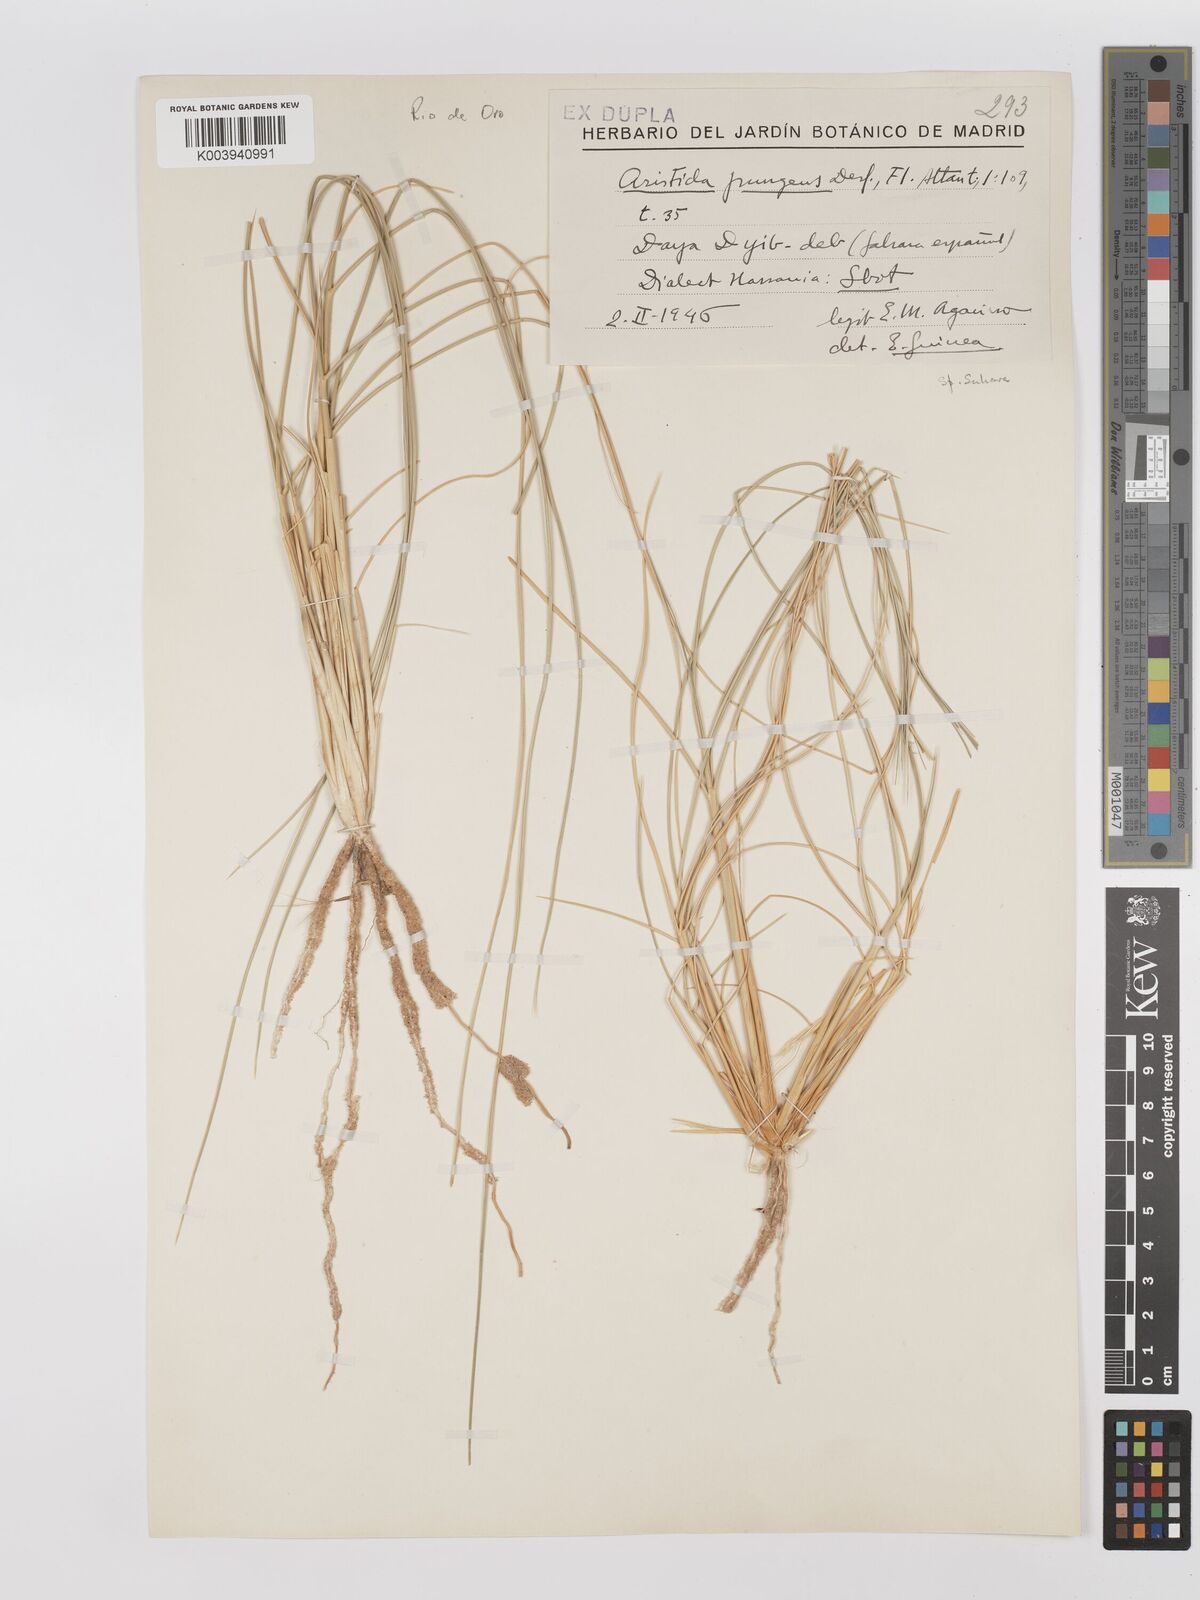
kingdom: Plantae
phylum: Tracheophyta
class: Liliopsida
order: Poales
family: Poaceae
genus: Stipagrostis
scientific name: Stipagrostis pungens
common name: Three-awn grass
